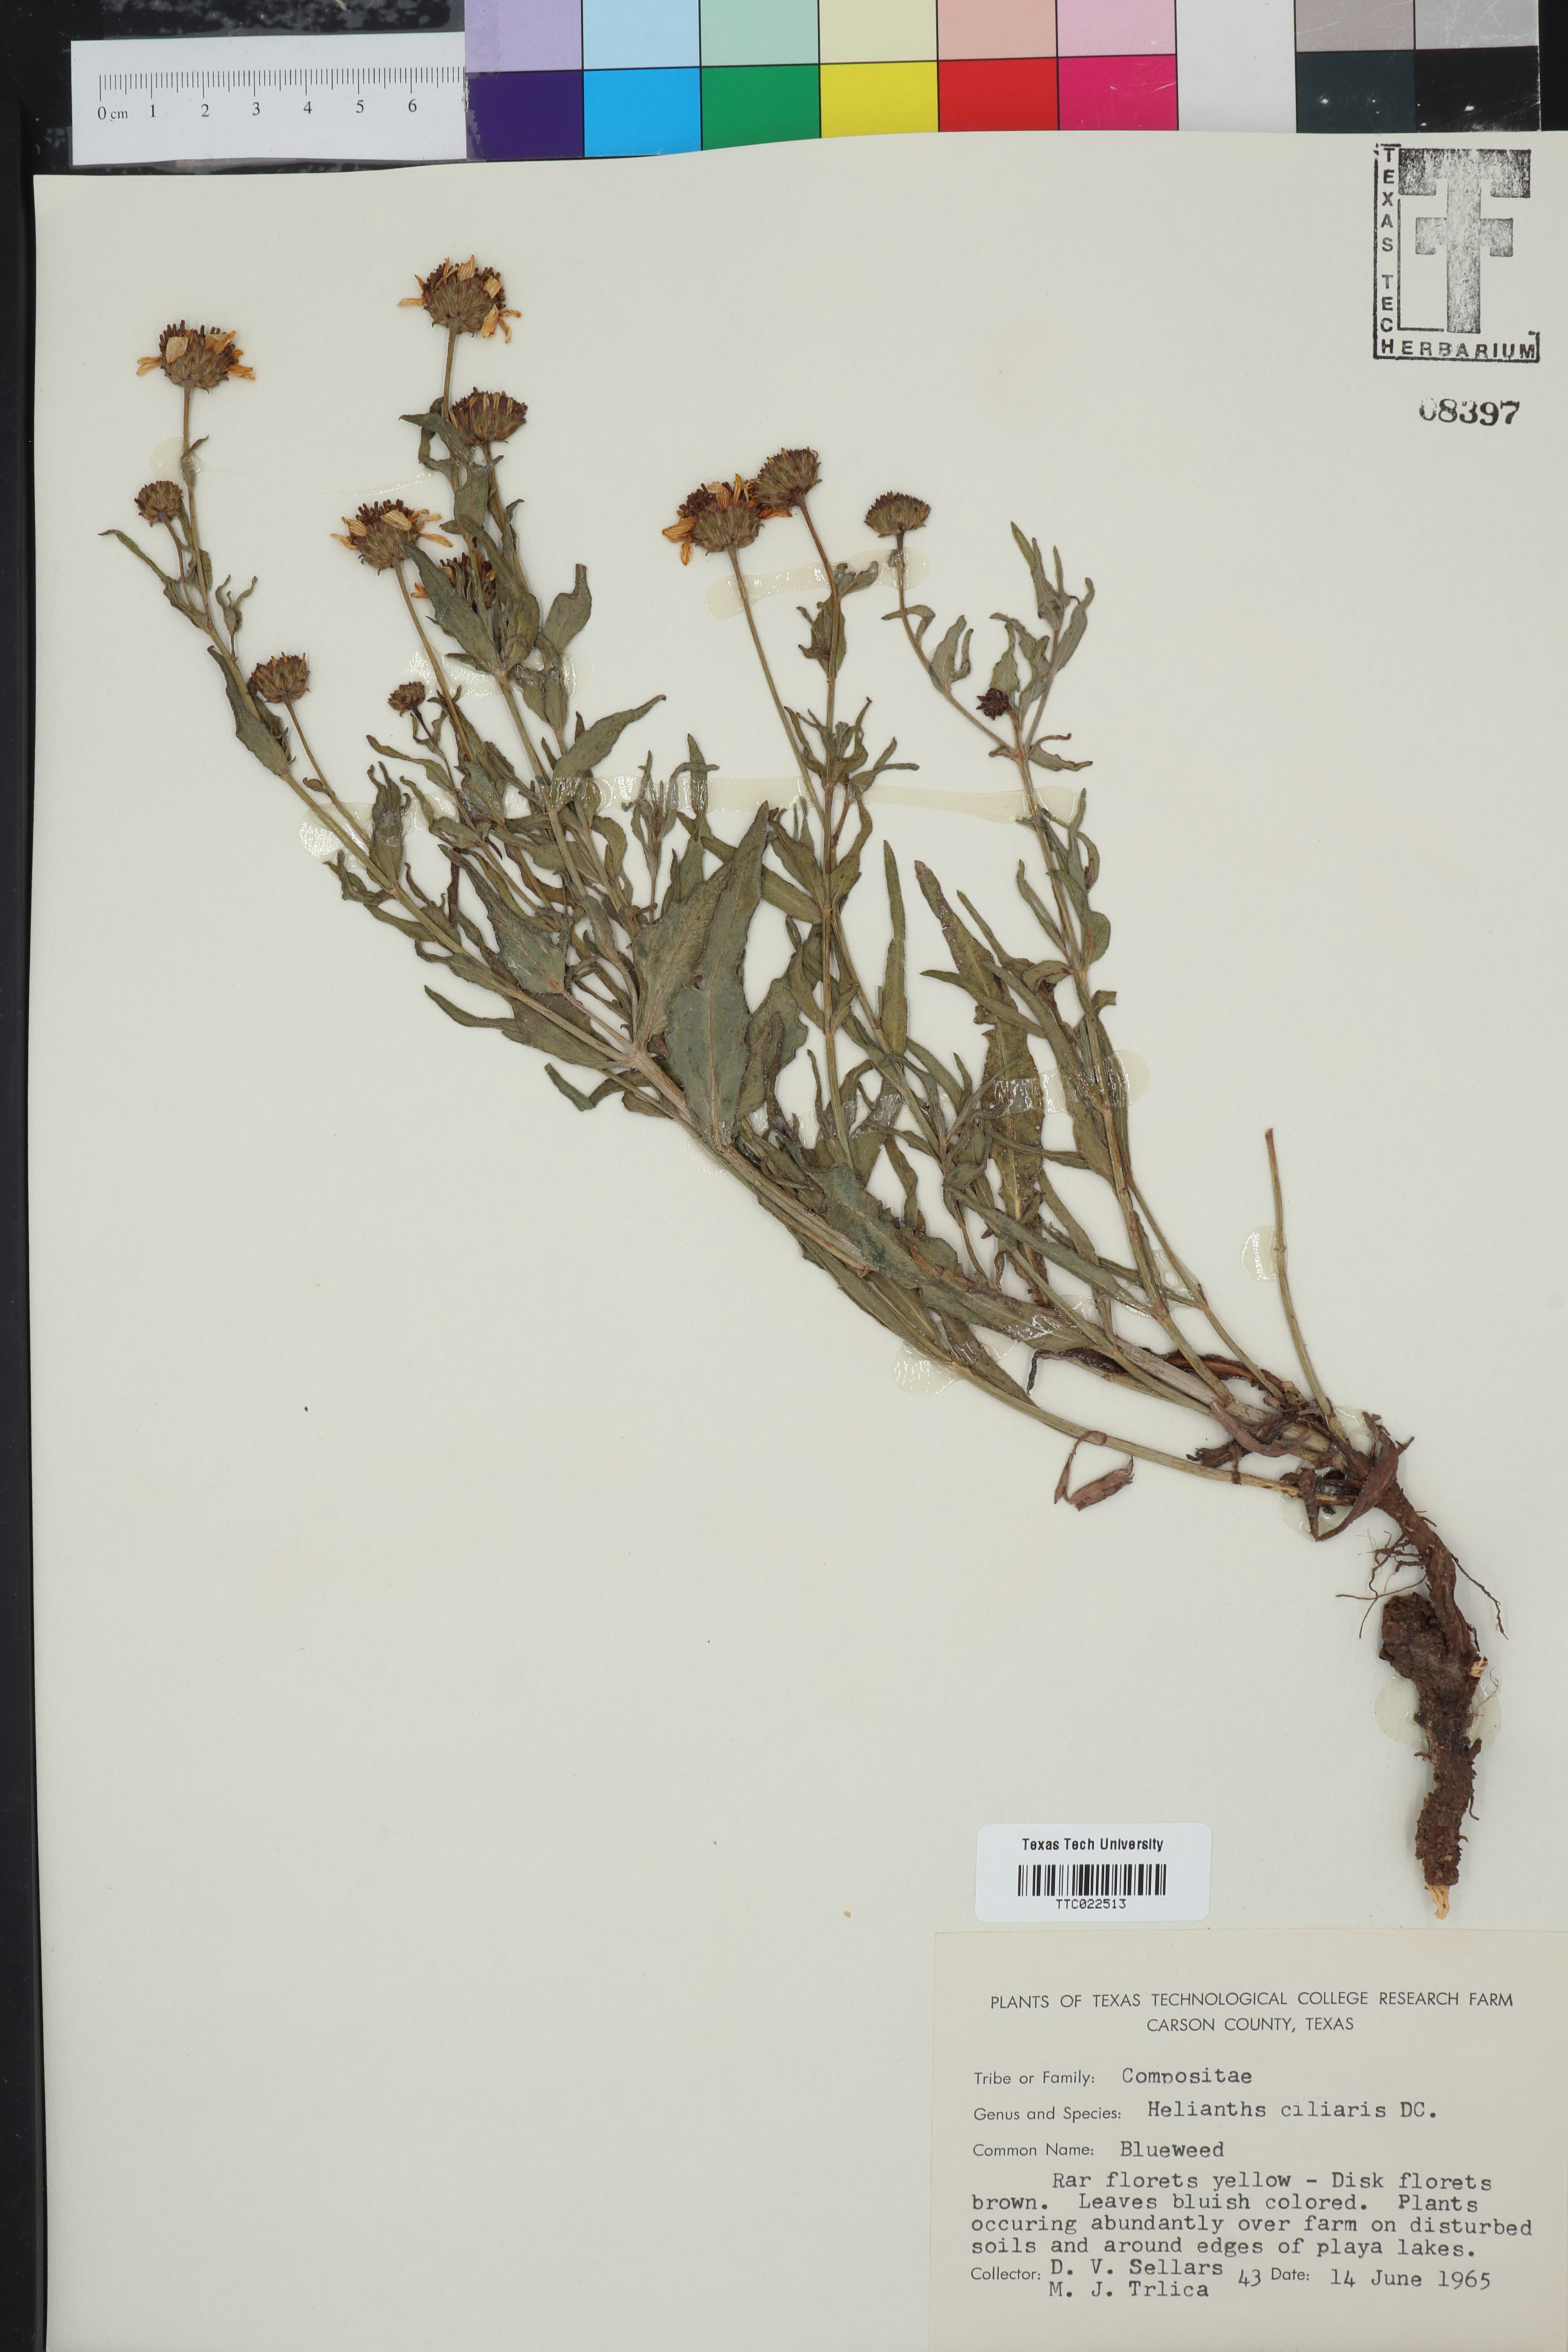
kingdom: Plantae
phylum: Tracheophyta
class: Magnoliopsida
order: Asterales
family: Asteraceae
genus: Helianthus
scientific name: Helianthus ciliaris
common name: Texas blueweed
